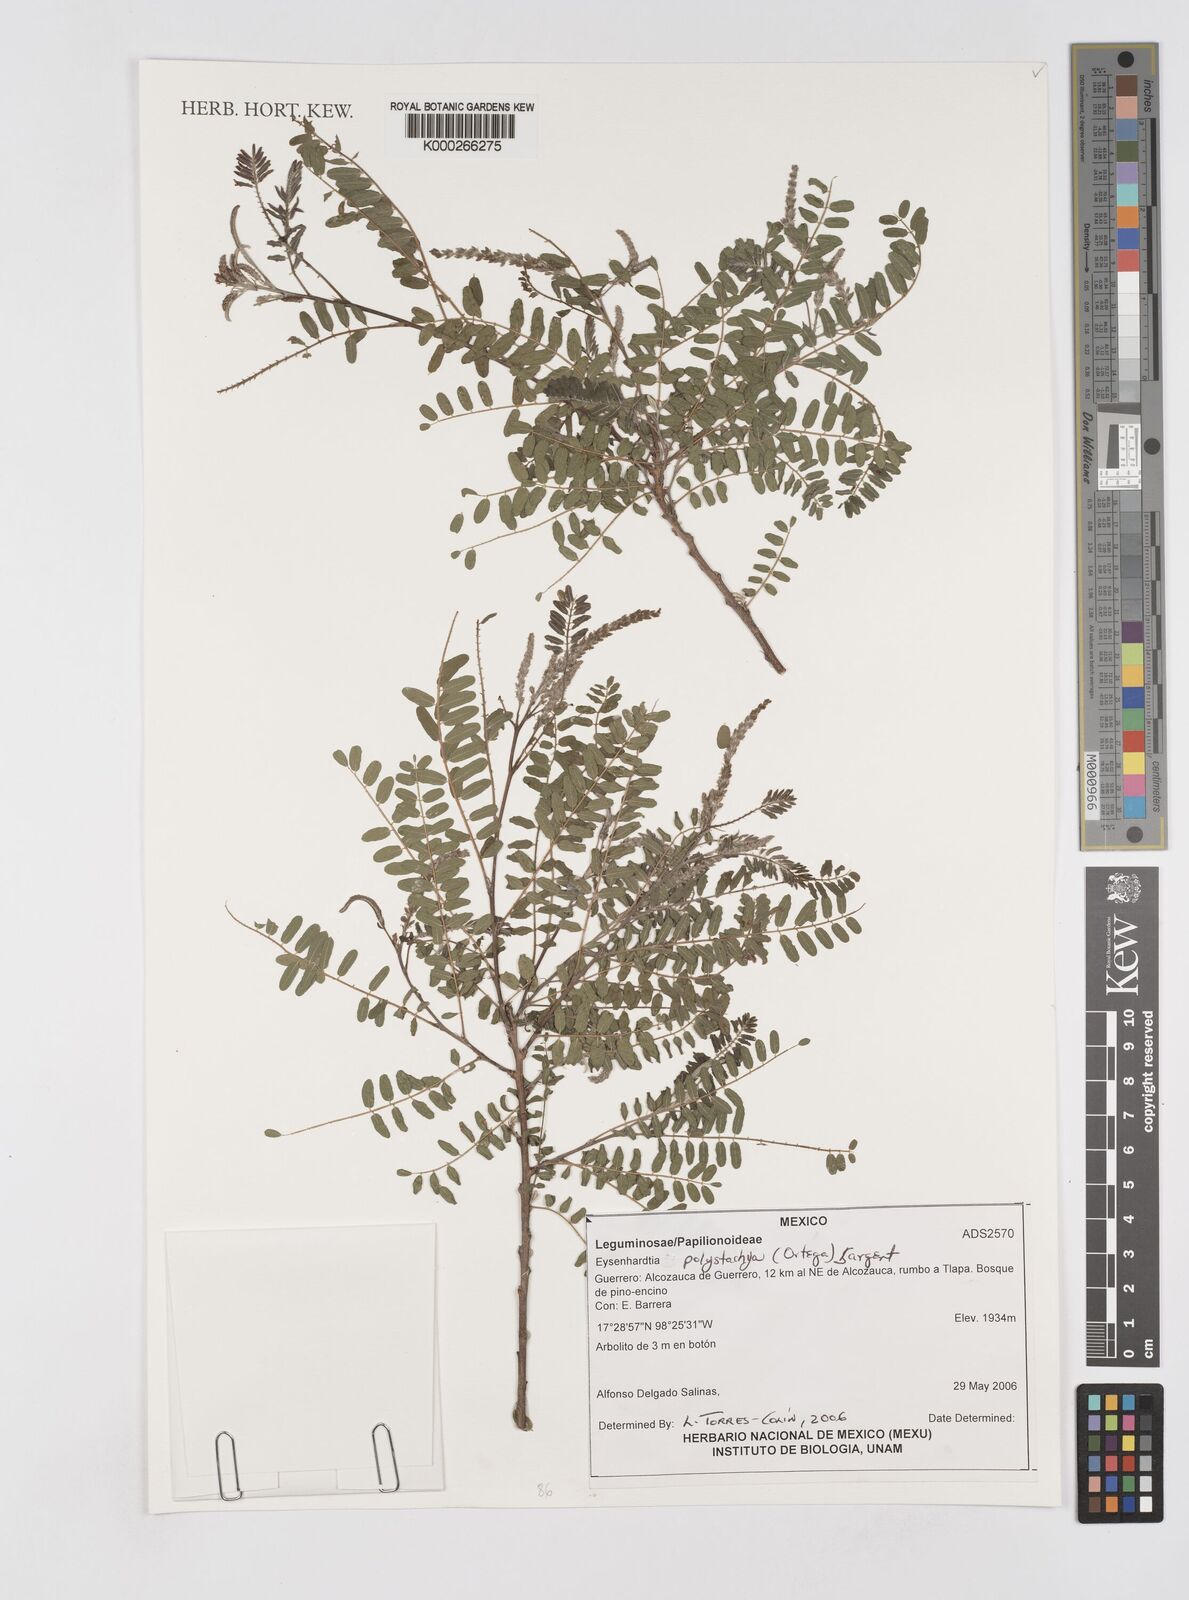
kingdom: Plantae
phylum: Tracheophyta
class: Magnoliopsida
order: Fabales
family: Fabaceae
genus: Eysenhardtia
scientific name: Eysenhardtia polystachya
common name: Kidneywood
